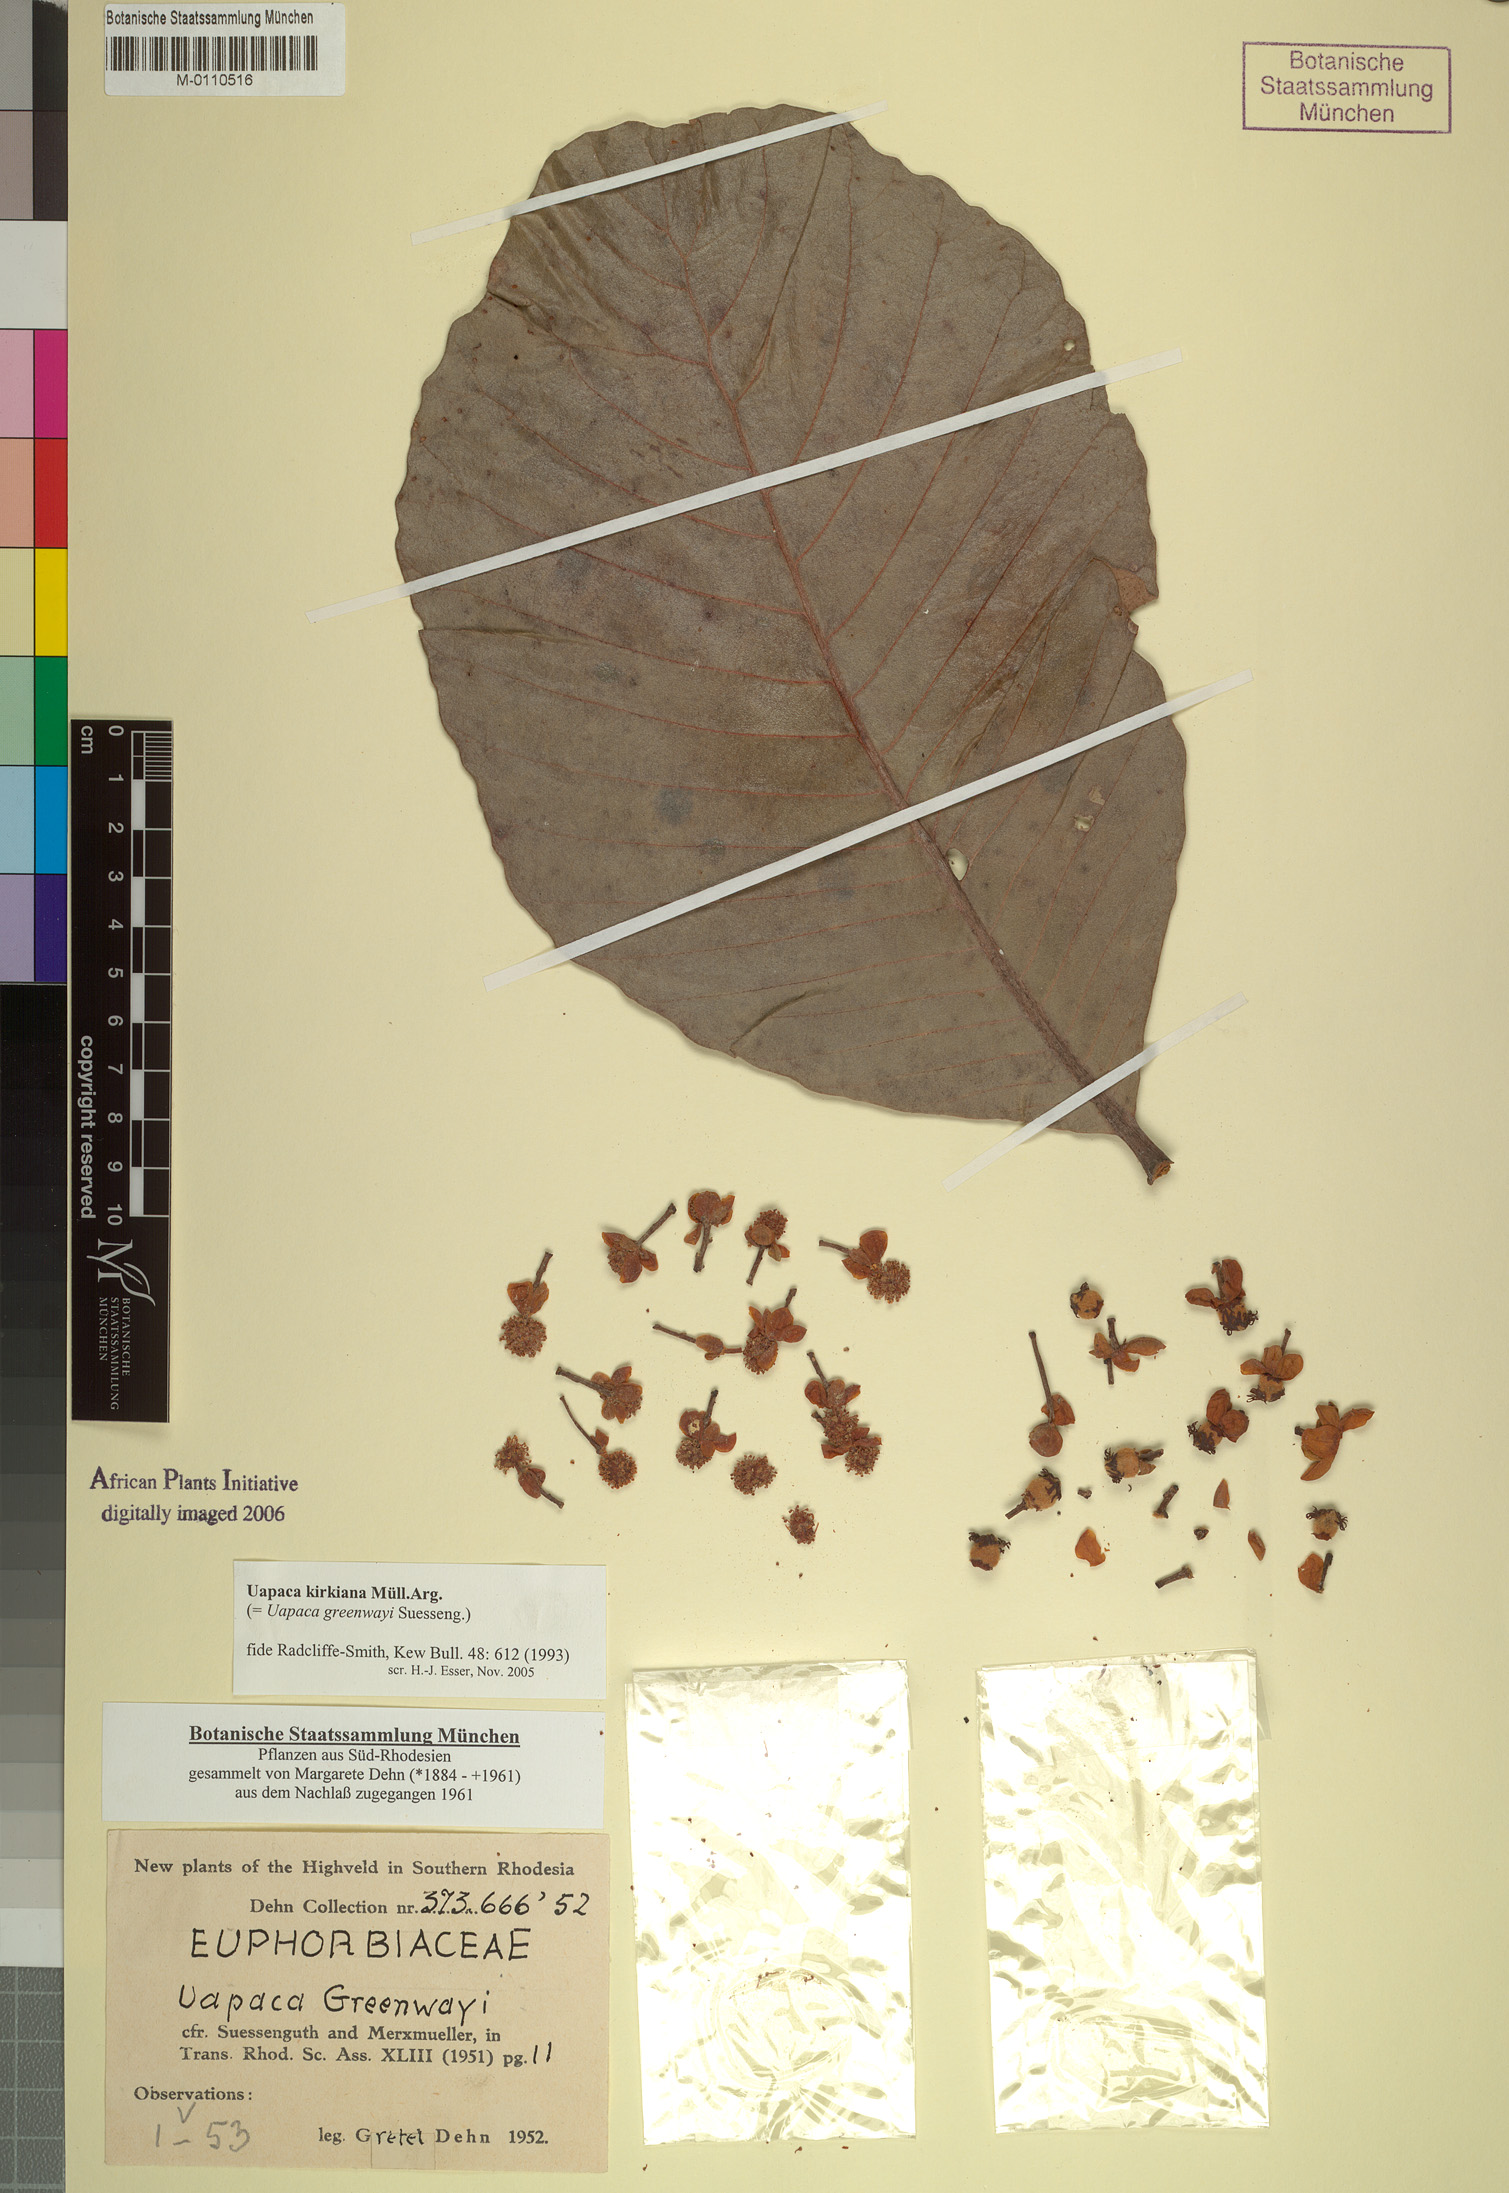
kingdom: Plantae
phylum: Tracheophyta
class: Magnoliopsida
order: Malpighiales
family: Phyllanthaceae
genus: Uapaca
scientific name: Uapaca kirkiana
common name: Wild loquat
